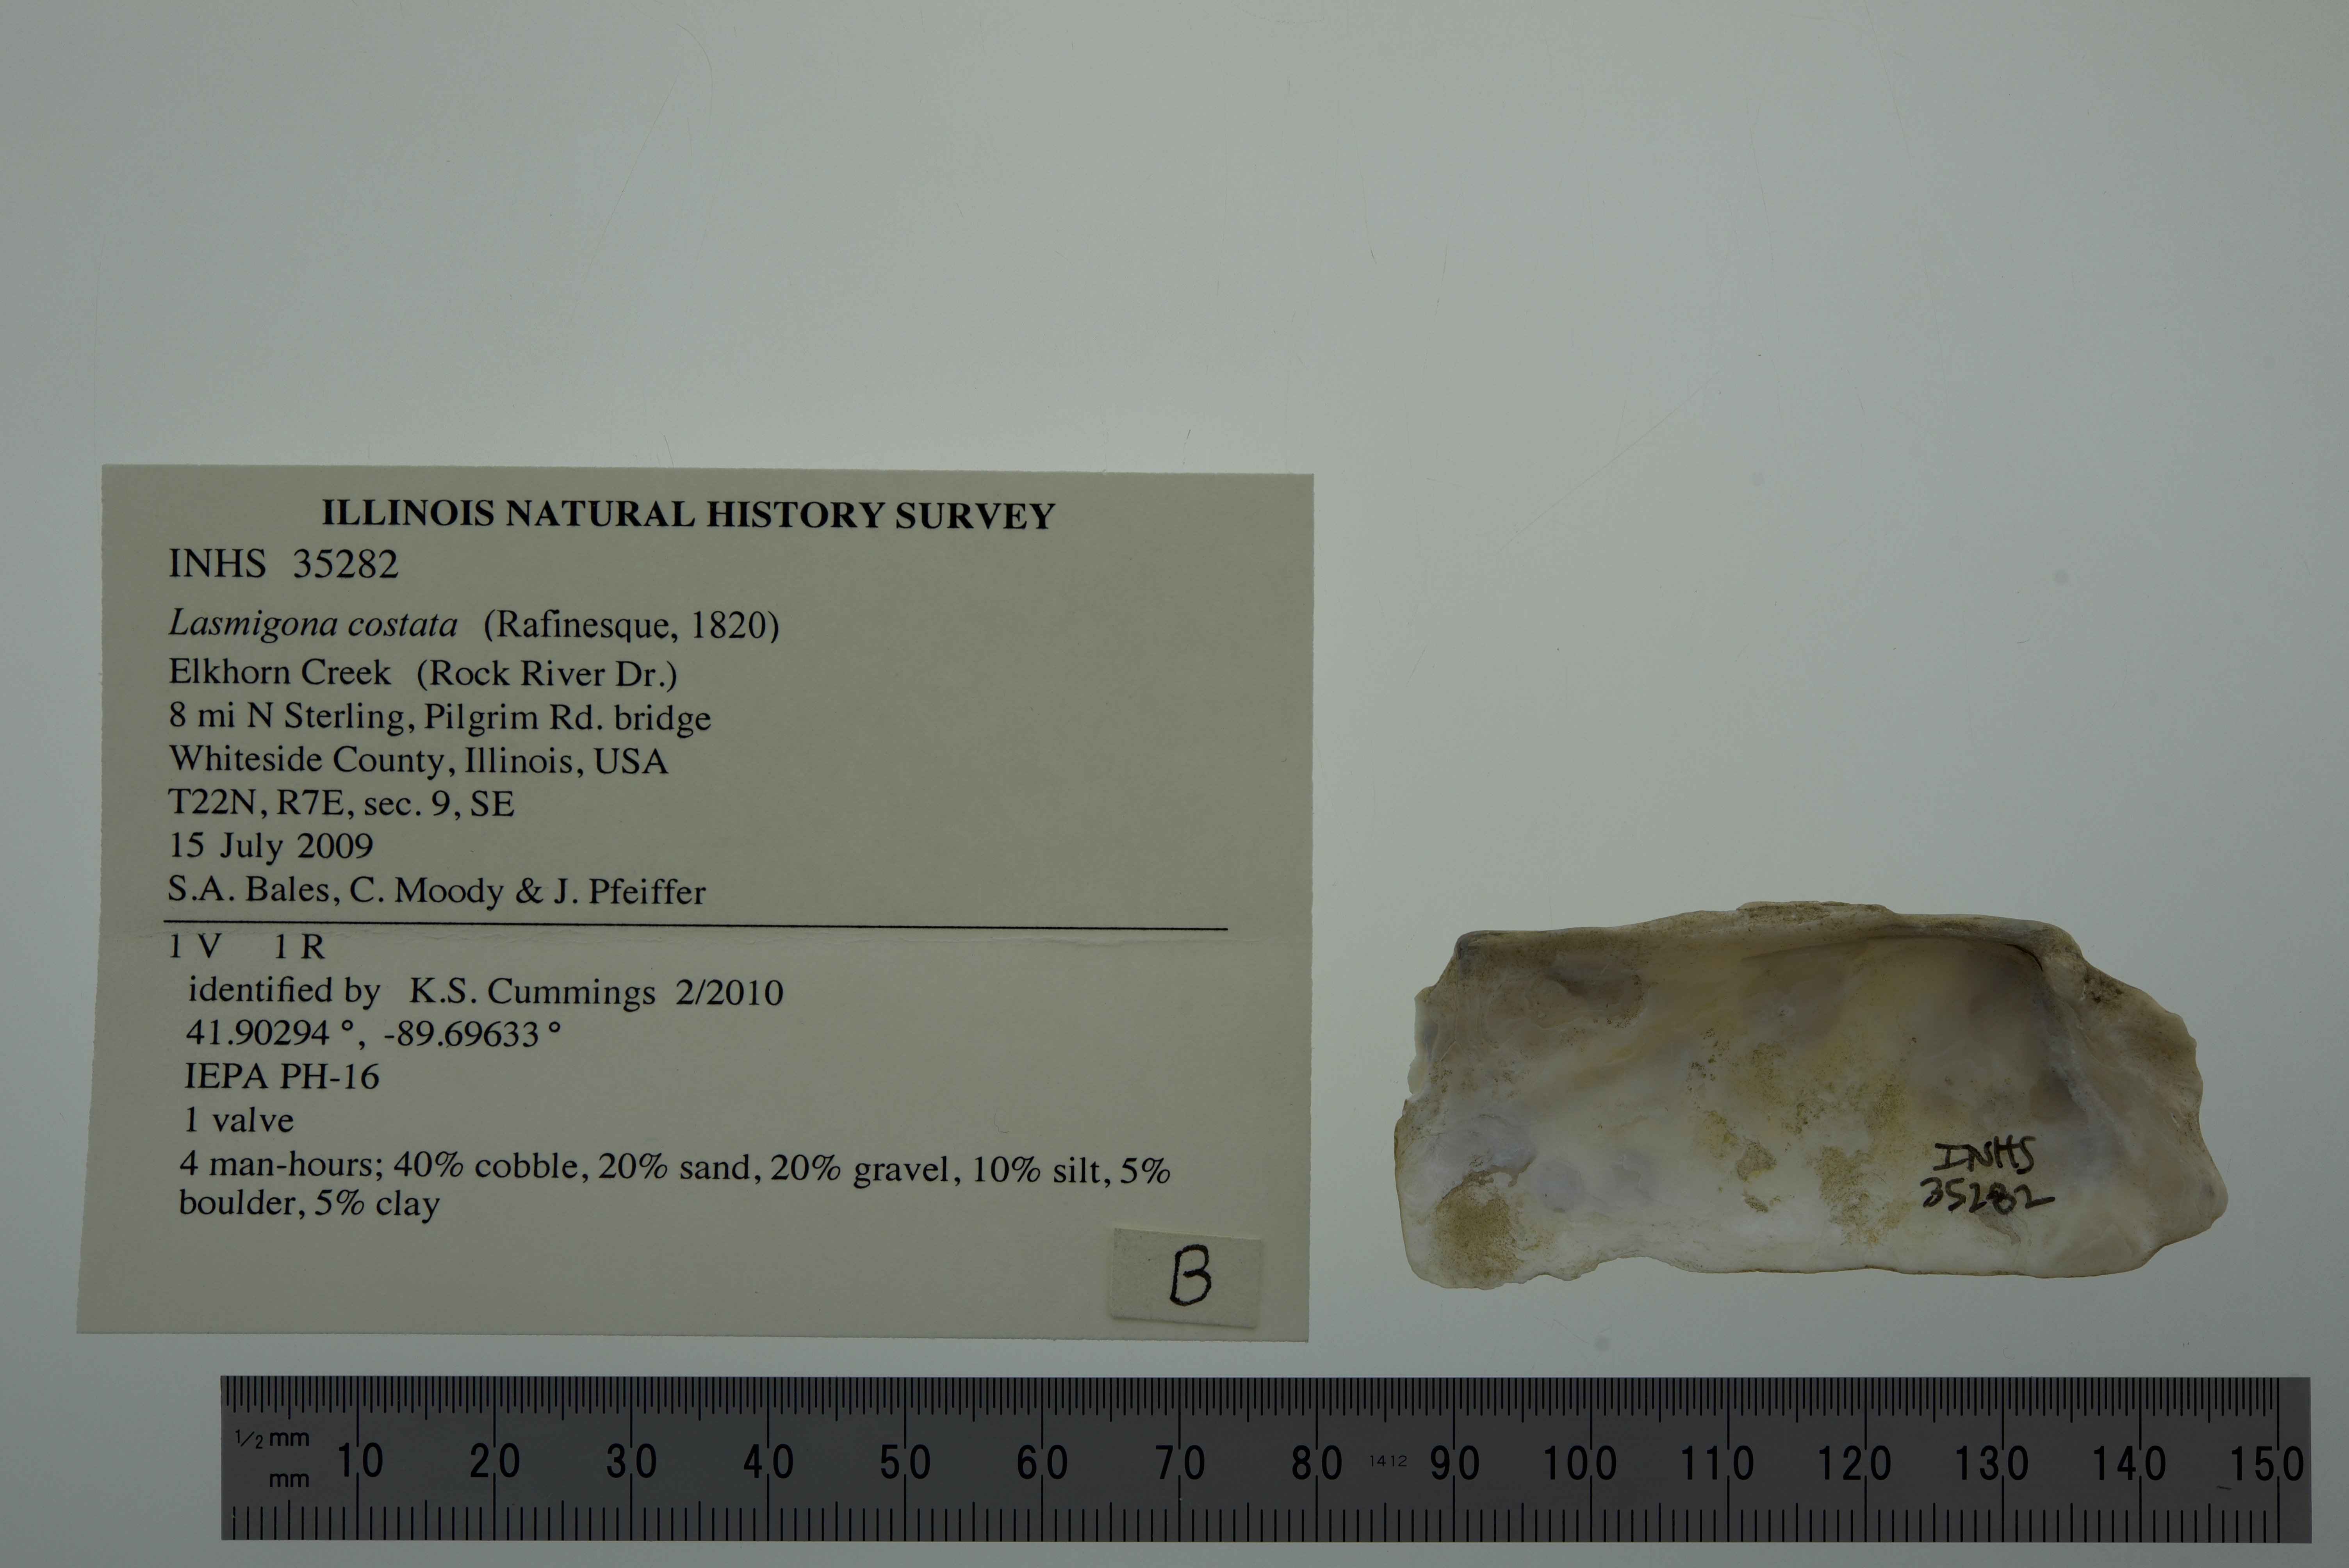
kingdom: Animalia
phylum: Mollusca
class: Bivalvia
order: Unionida
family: Unionidae
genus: Lasmigona
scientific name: Lasmigona costata
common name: Flutedshell
